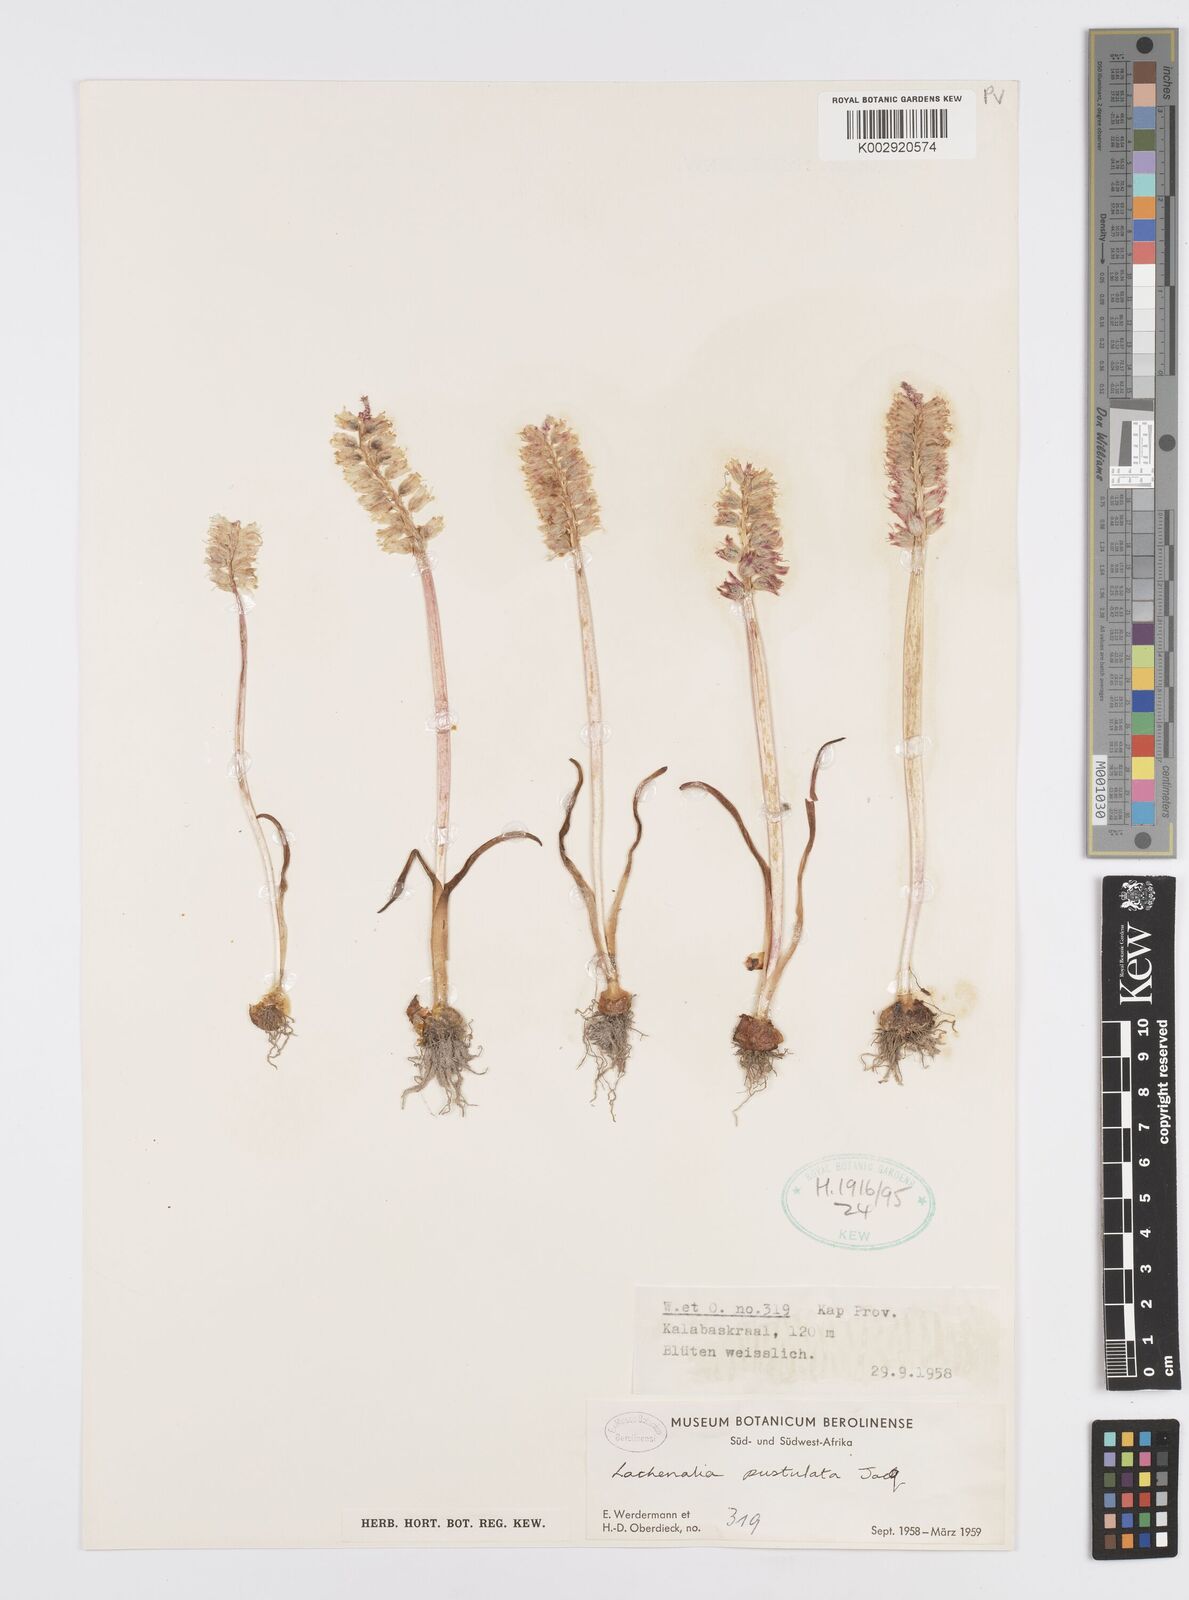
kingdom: Plantae
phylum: Tracheophyta
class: Liliopsida
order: Asparagales
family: Asparagaceae
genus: Lachenalia
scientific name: Lachenalia pallida
